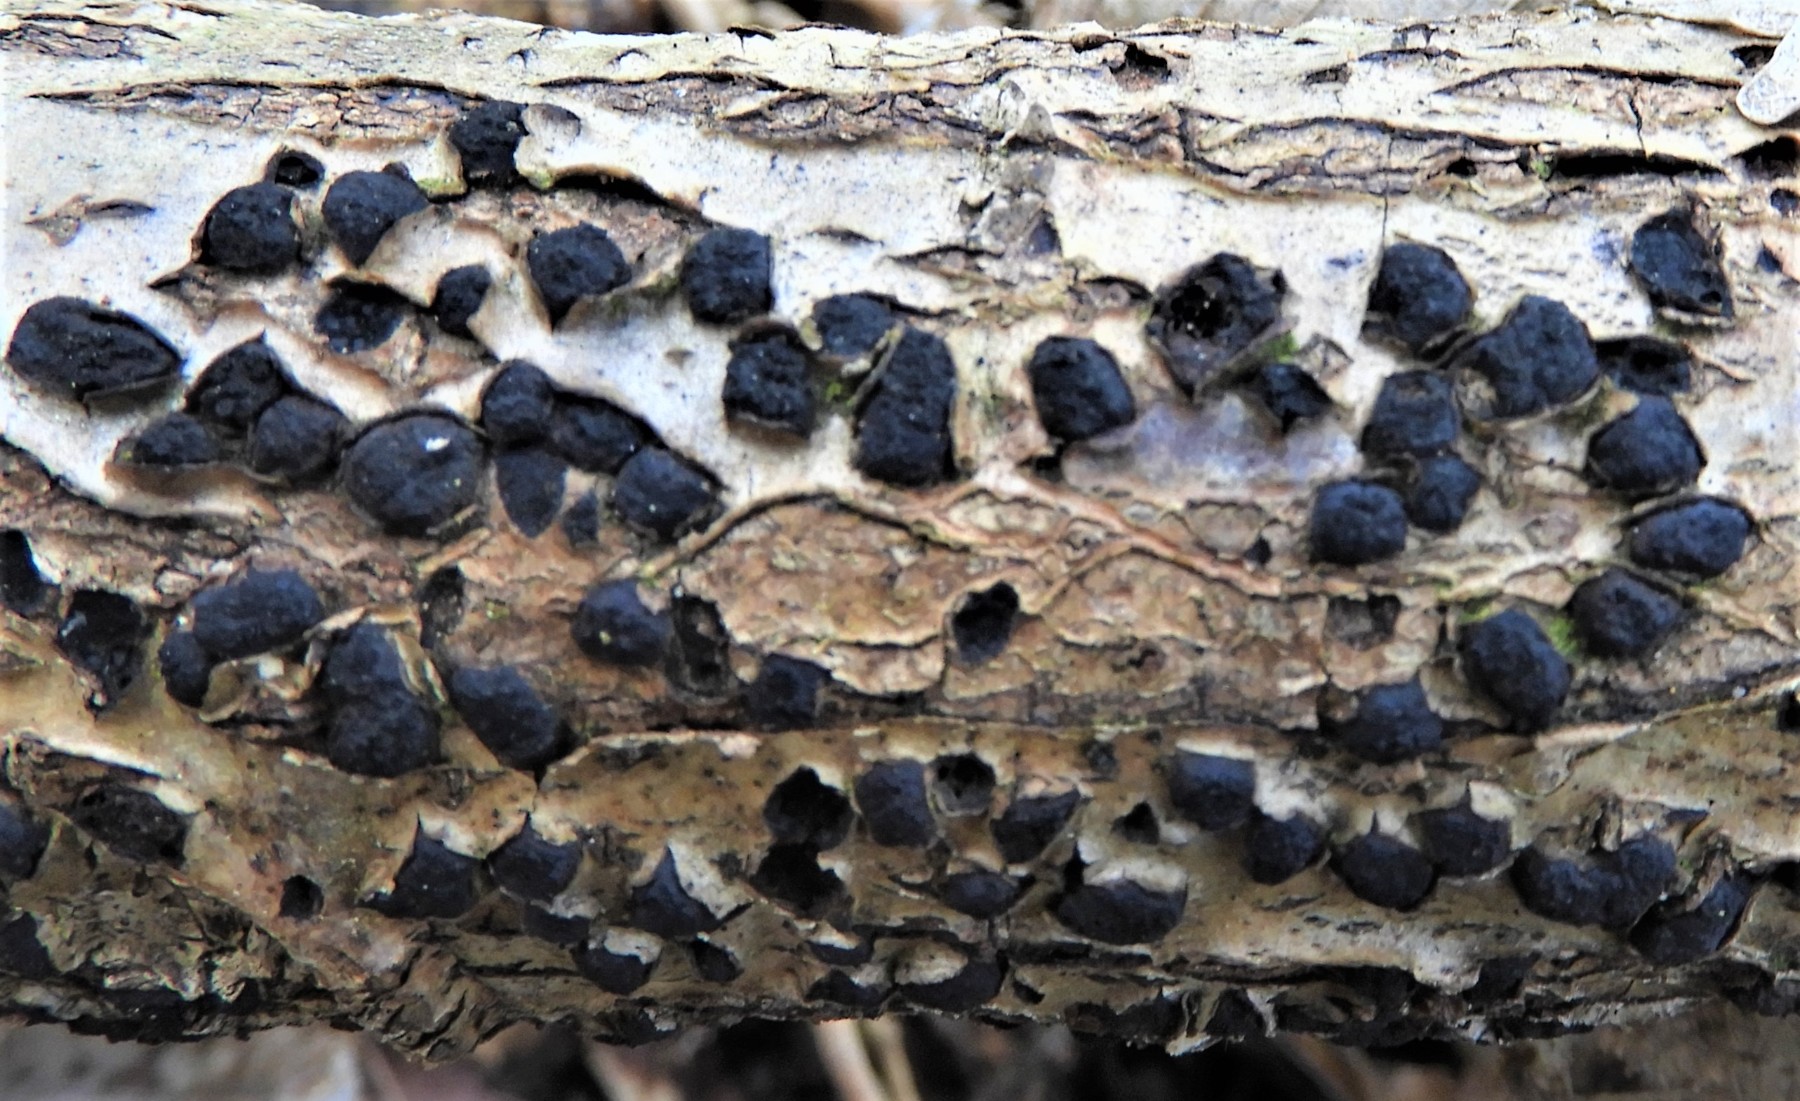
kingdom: Fungi
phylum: Ascomycota
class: Sordariomycetes
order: Xylariales
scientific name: Xylariales
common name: stødsvampordenen
